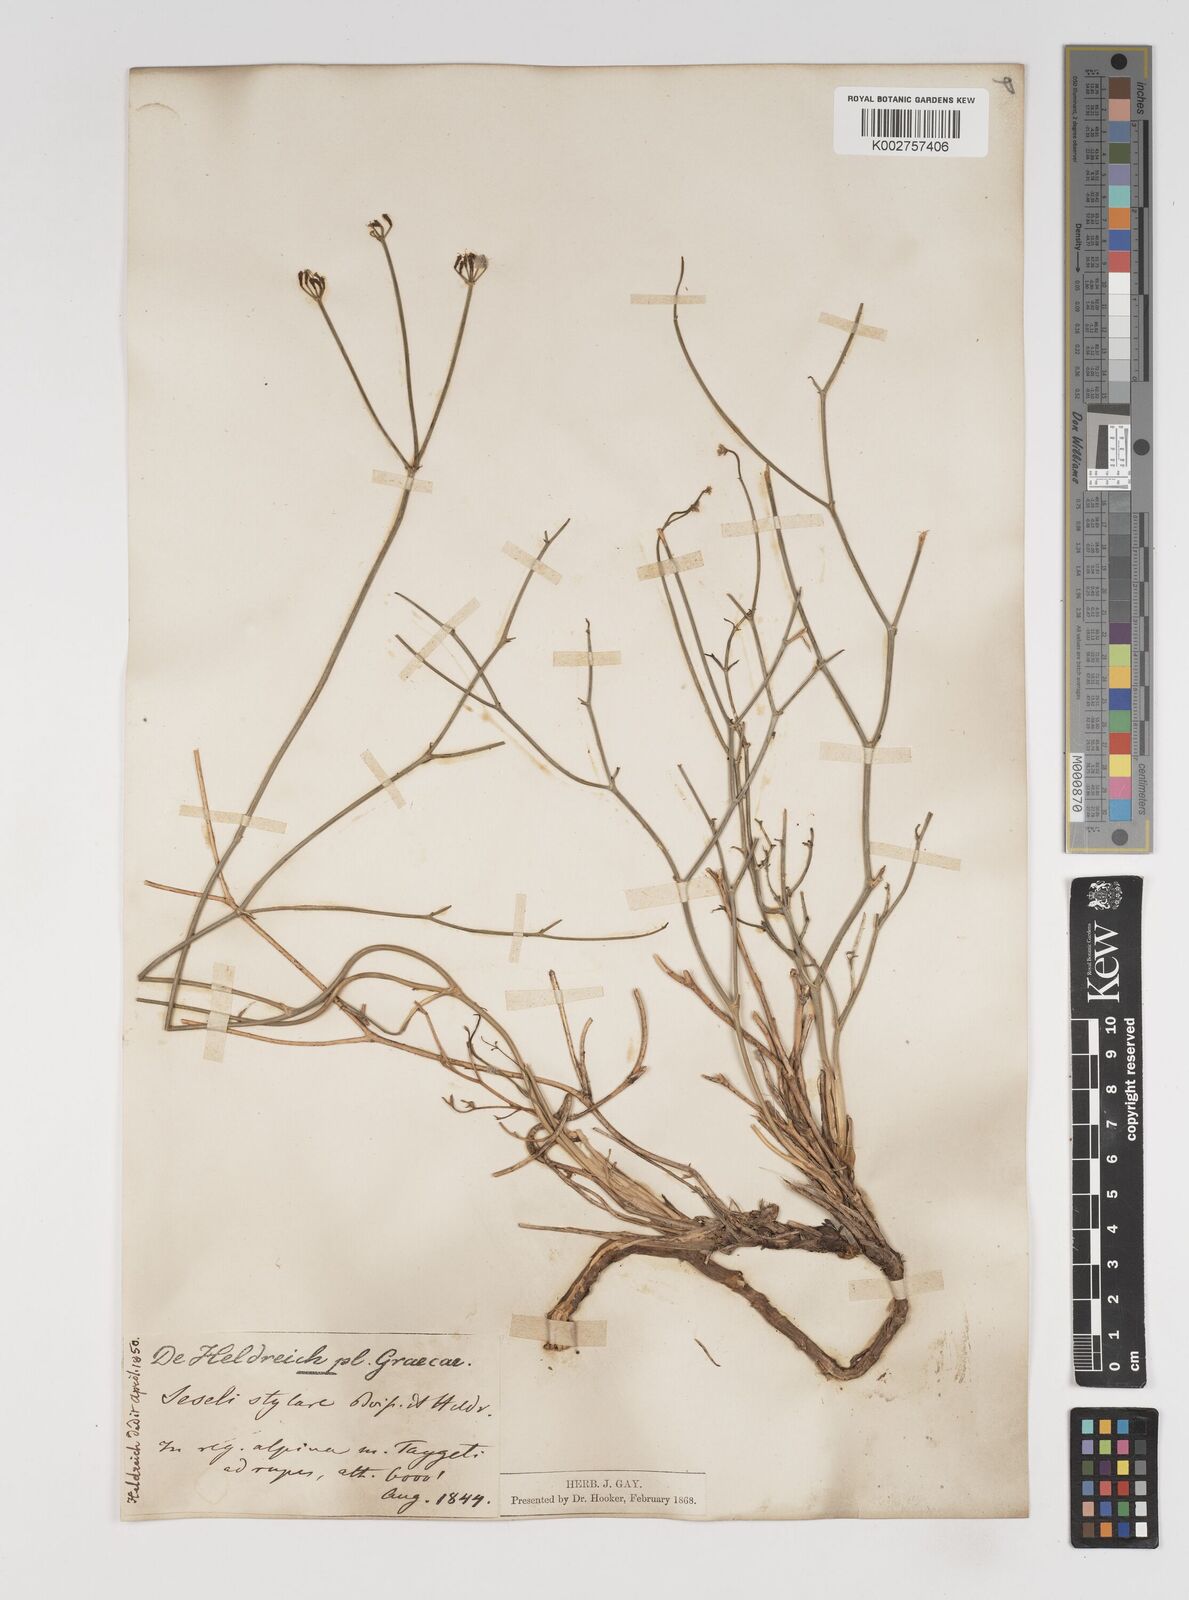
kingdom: Plantae
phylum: Tracheophyta
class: Magnoliopsida
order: Apiales
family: Apiaceae
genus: Thamnosciadium
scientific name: Thamnosciadium junceum
